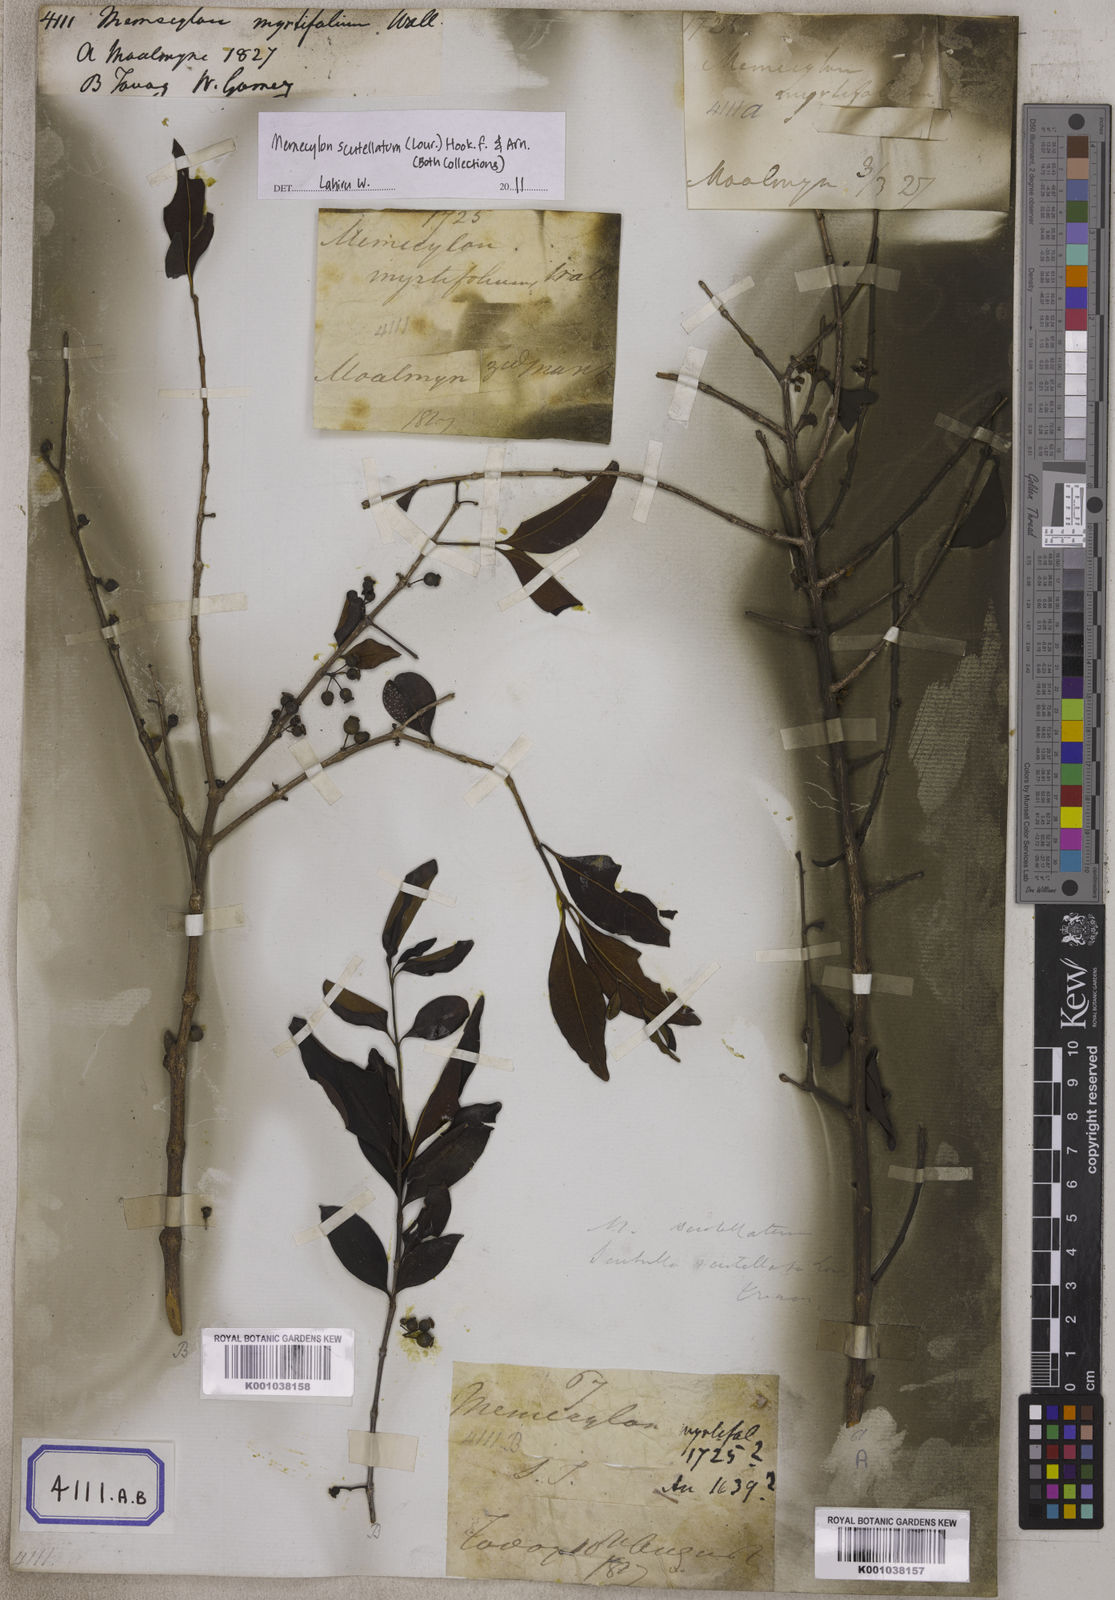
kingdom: Plantae
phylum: Tracheophyta
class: Magnoliopsida
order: Myrtales
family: Melastomataceae
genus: Memecylon
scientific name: Memecylon scutellatum
